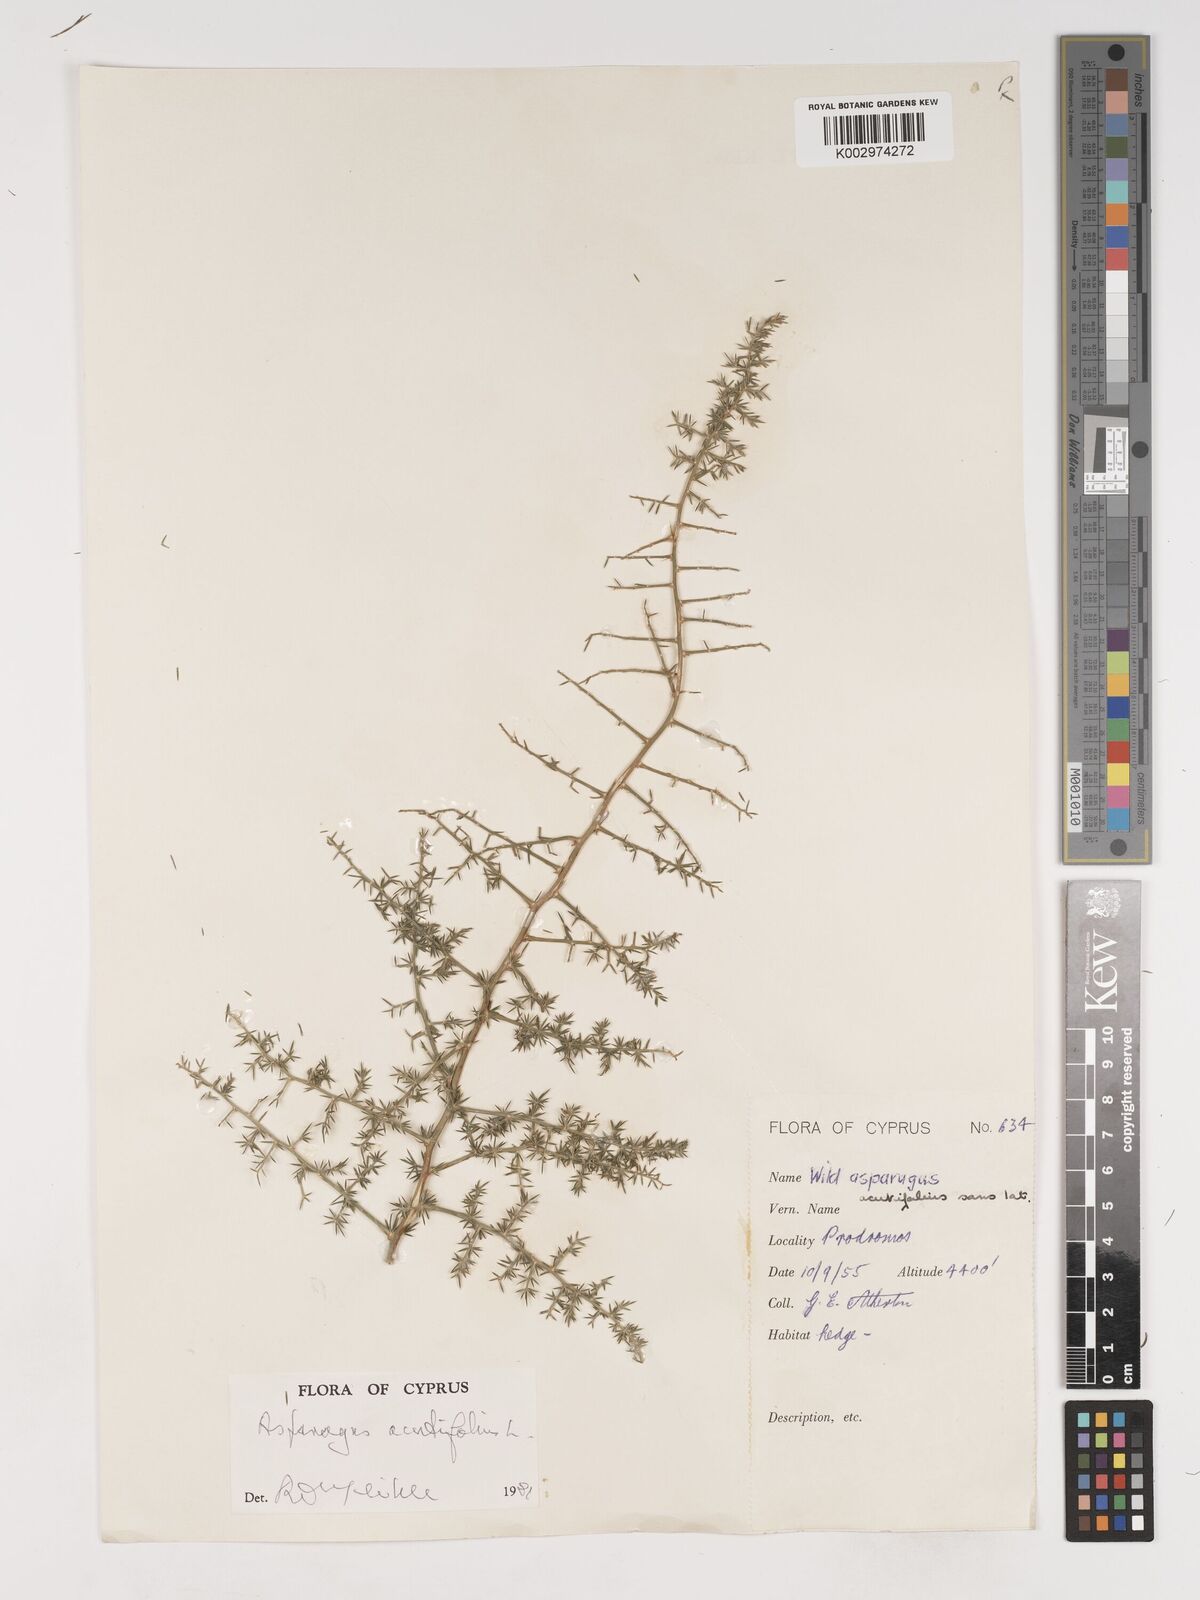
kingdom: Plantae
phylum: Tracheophyta
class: Liliopsida
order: Asparagales
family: Asparagaceae
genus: Asparagus
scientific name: Asparagus acutifolius
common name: Wild asparagus
